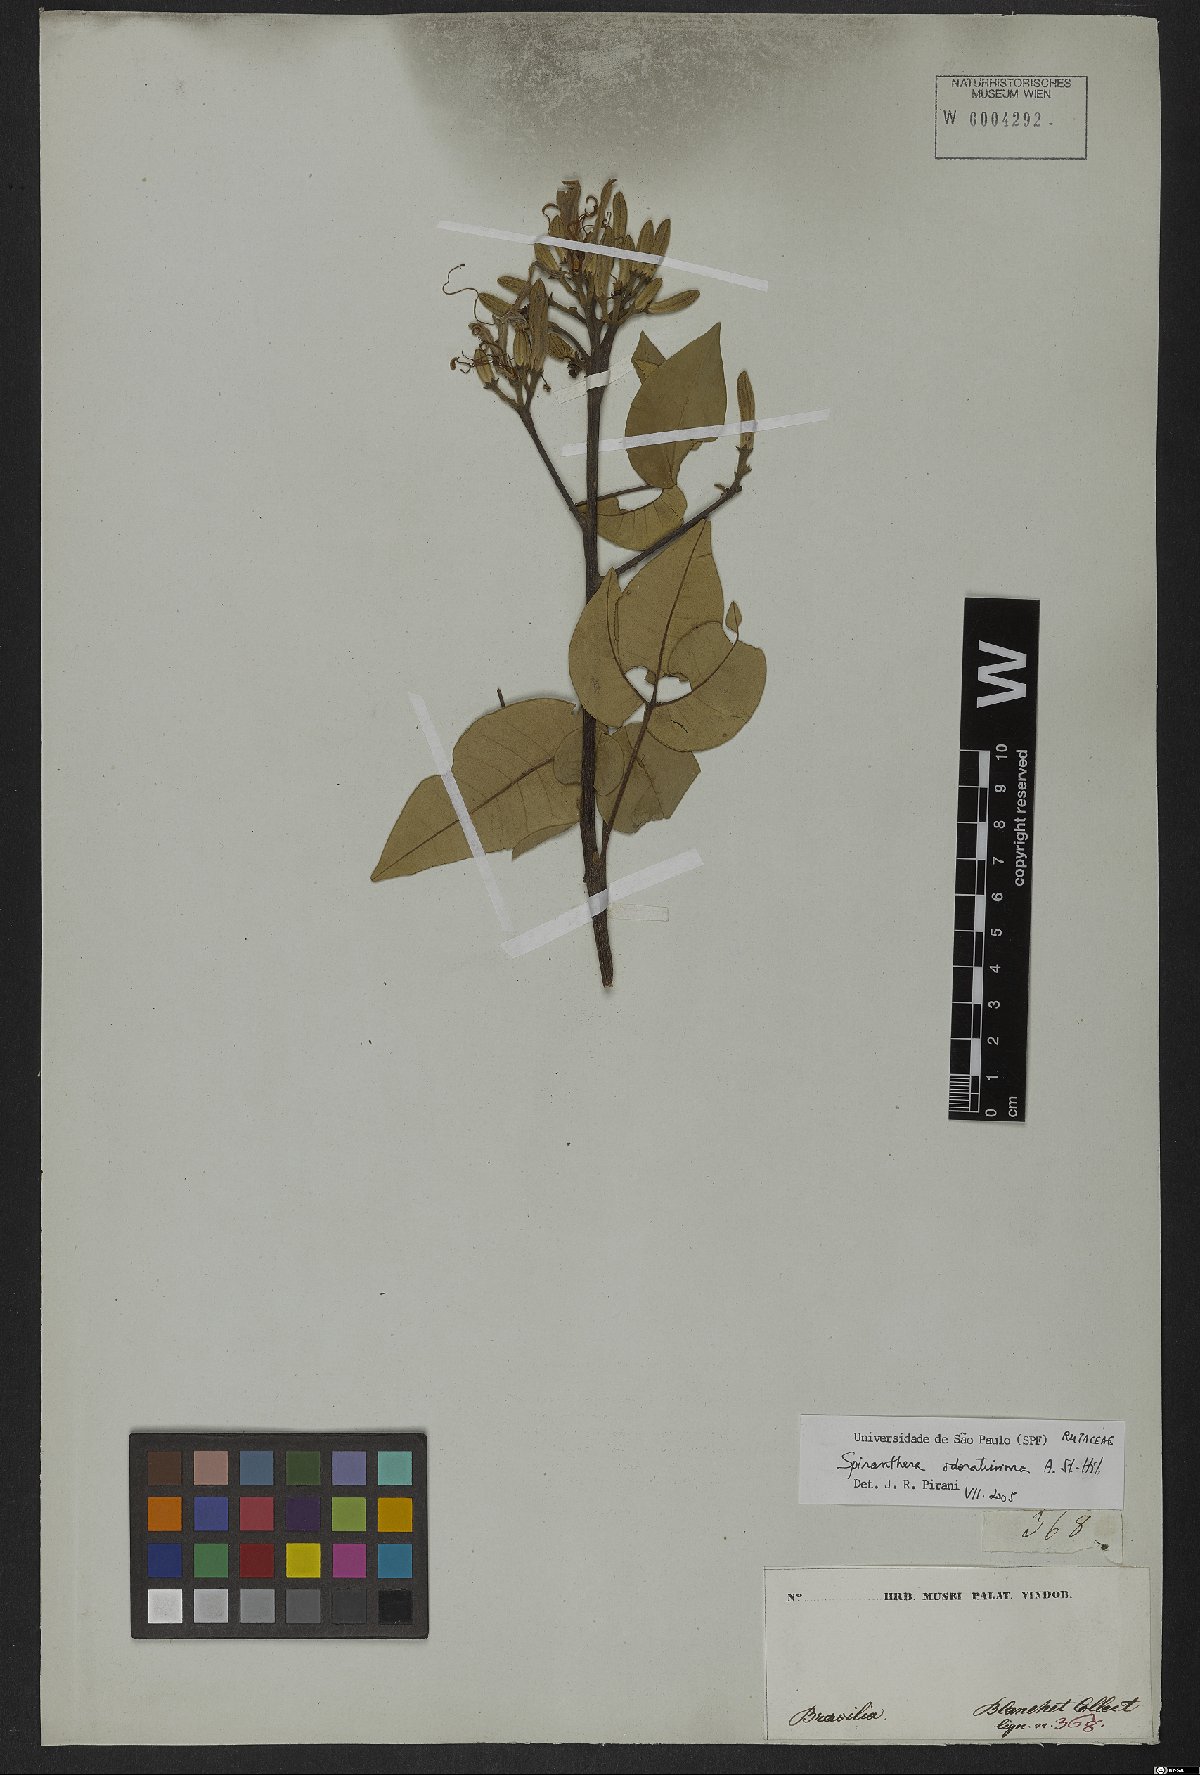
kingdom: Plantae
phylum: Tracheophyta
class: Magnoliopsida
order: Sapindales
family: Rutaceae
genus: Spiranthera
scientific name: Spiranthera odoratissima
